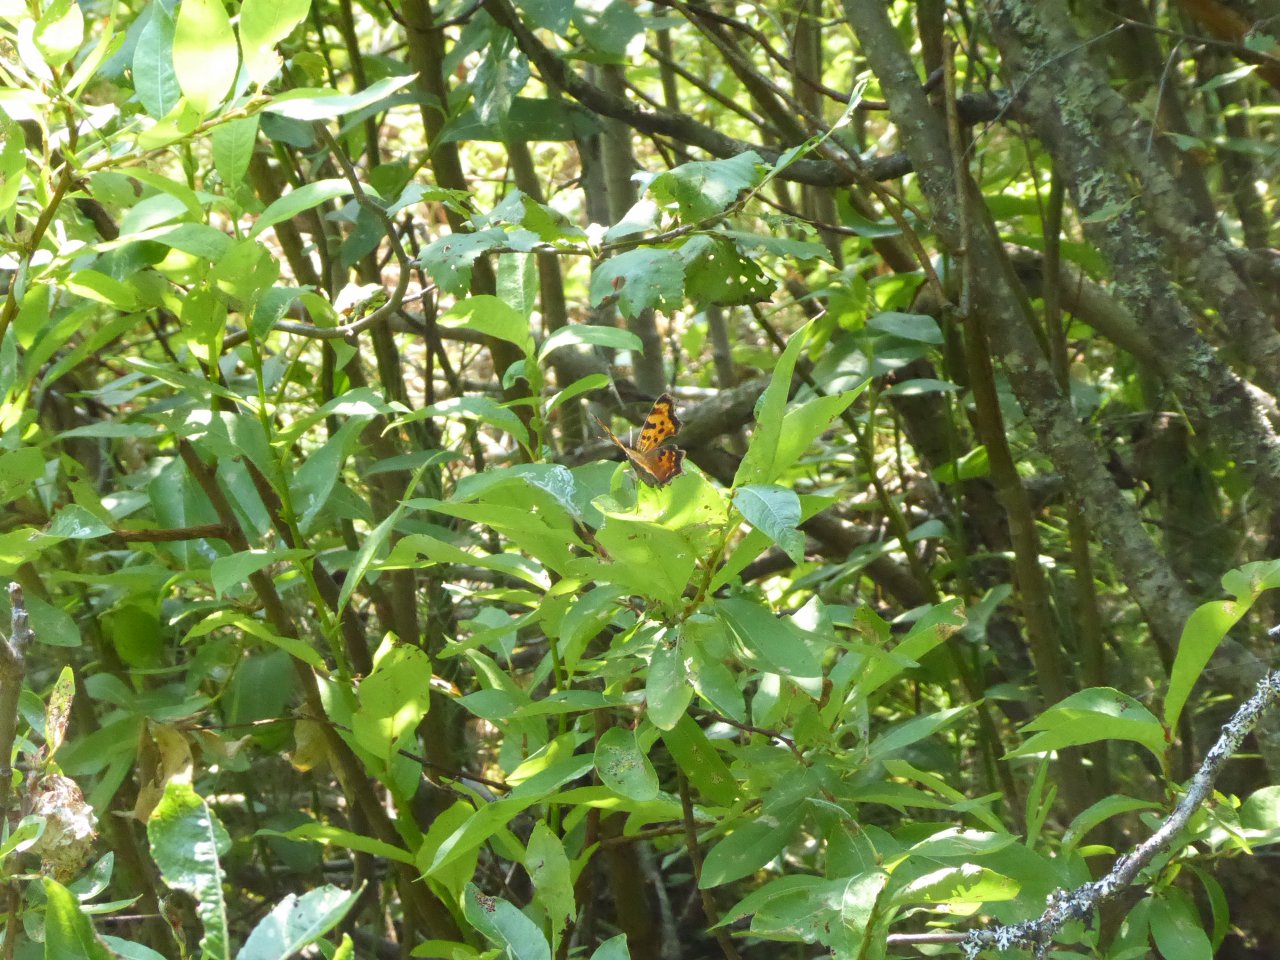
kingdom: Animalia
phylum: Arthropoda
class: Insecta
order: Lepidoptera
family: Nymphalidae
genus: Polygonia
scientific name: Polygonia oreas
